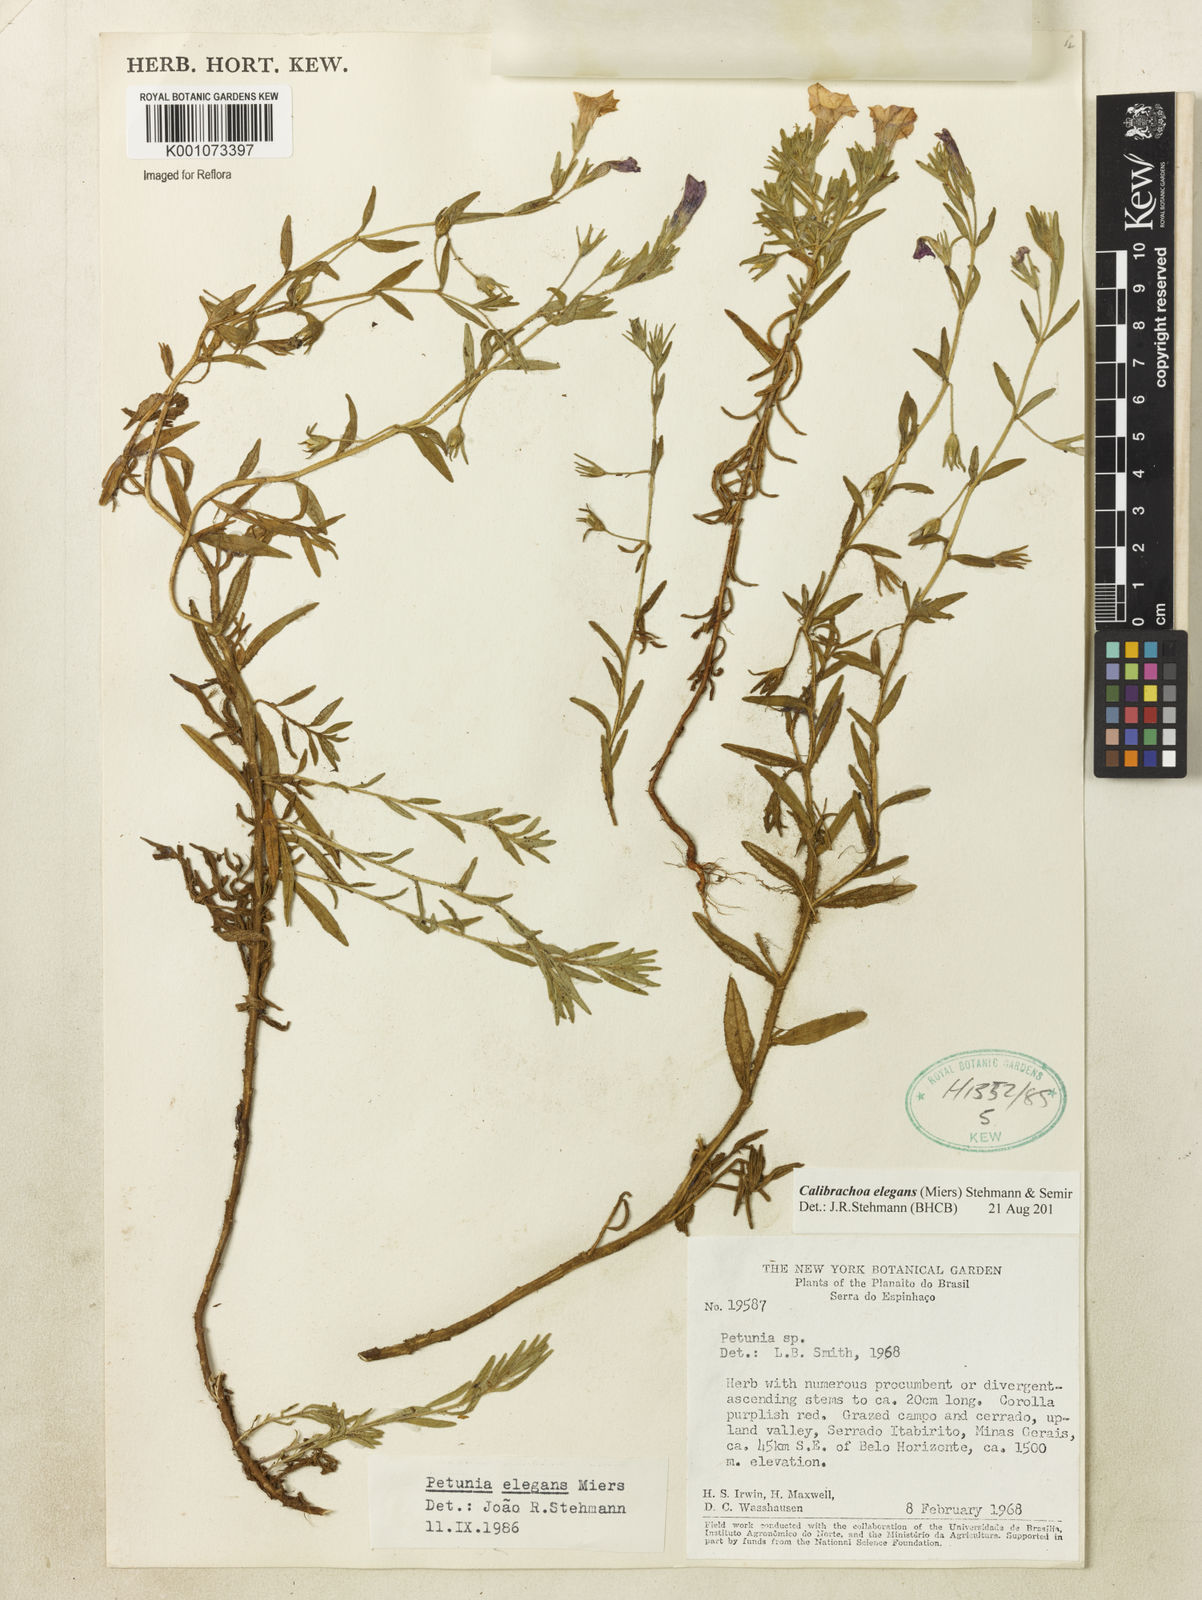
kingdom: Plantae
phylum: Tracheophyta
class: Magnoliopsida
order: Solanales
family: Solanaceae
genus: Calibrachoa
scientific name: Calibrachoa elegans
